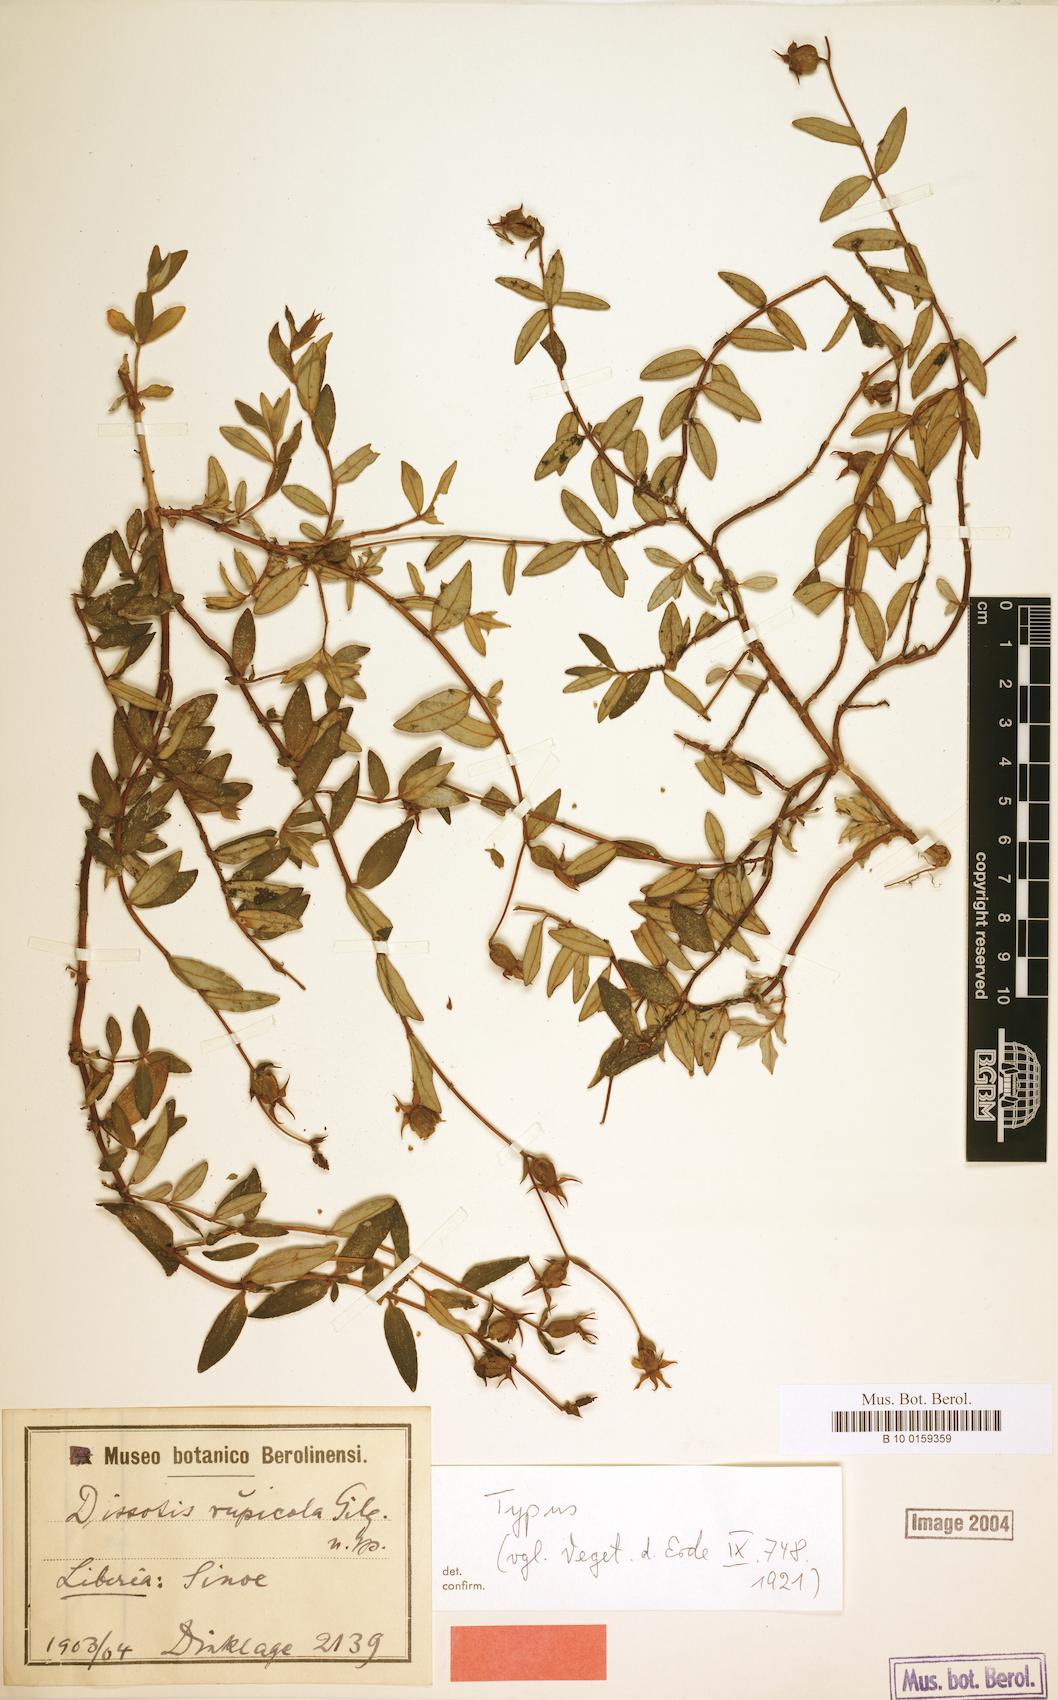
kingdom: Plantae
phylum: Tracheophyta
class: Magnoliopsida
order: Myrtales
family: Melastomataceae
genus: Guyonia
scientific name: Guyonia rupicola
